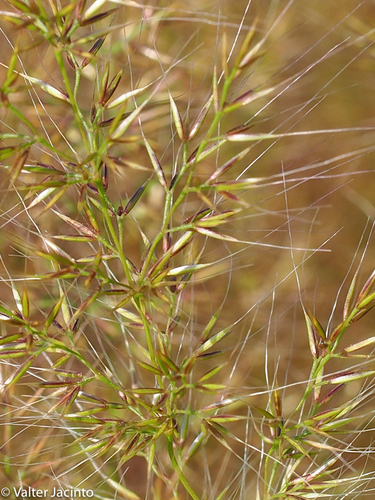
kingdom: Plantae
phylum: Tracheophyta
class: Liliopsida
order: Poales
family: Poaceae
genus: Agrostis
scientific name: Agrostis subspicata
